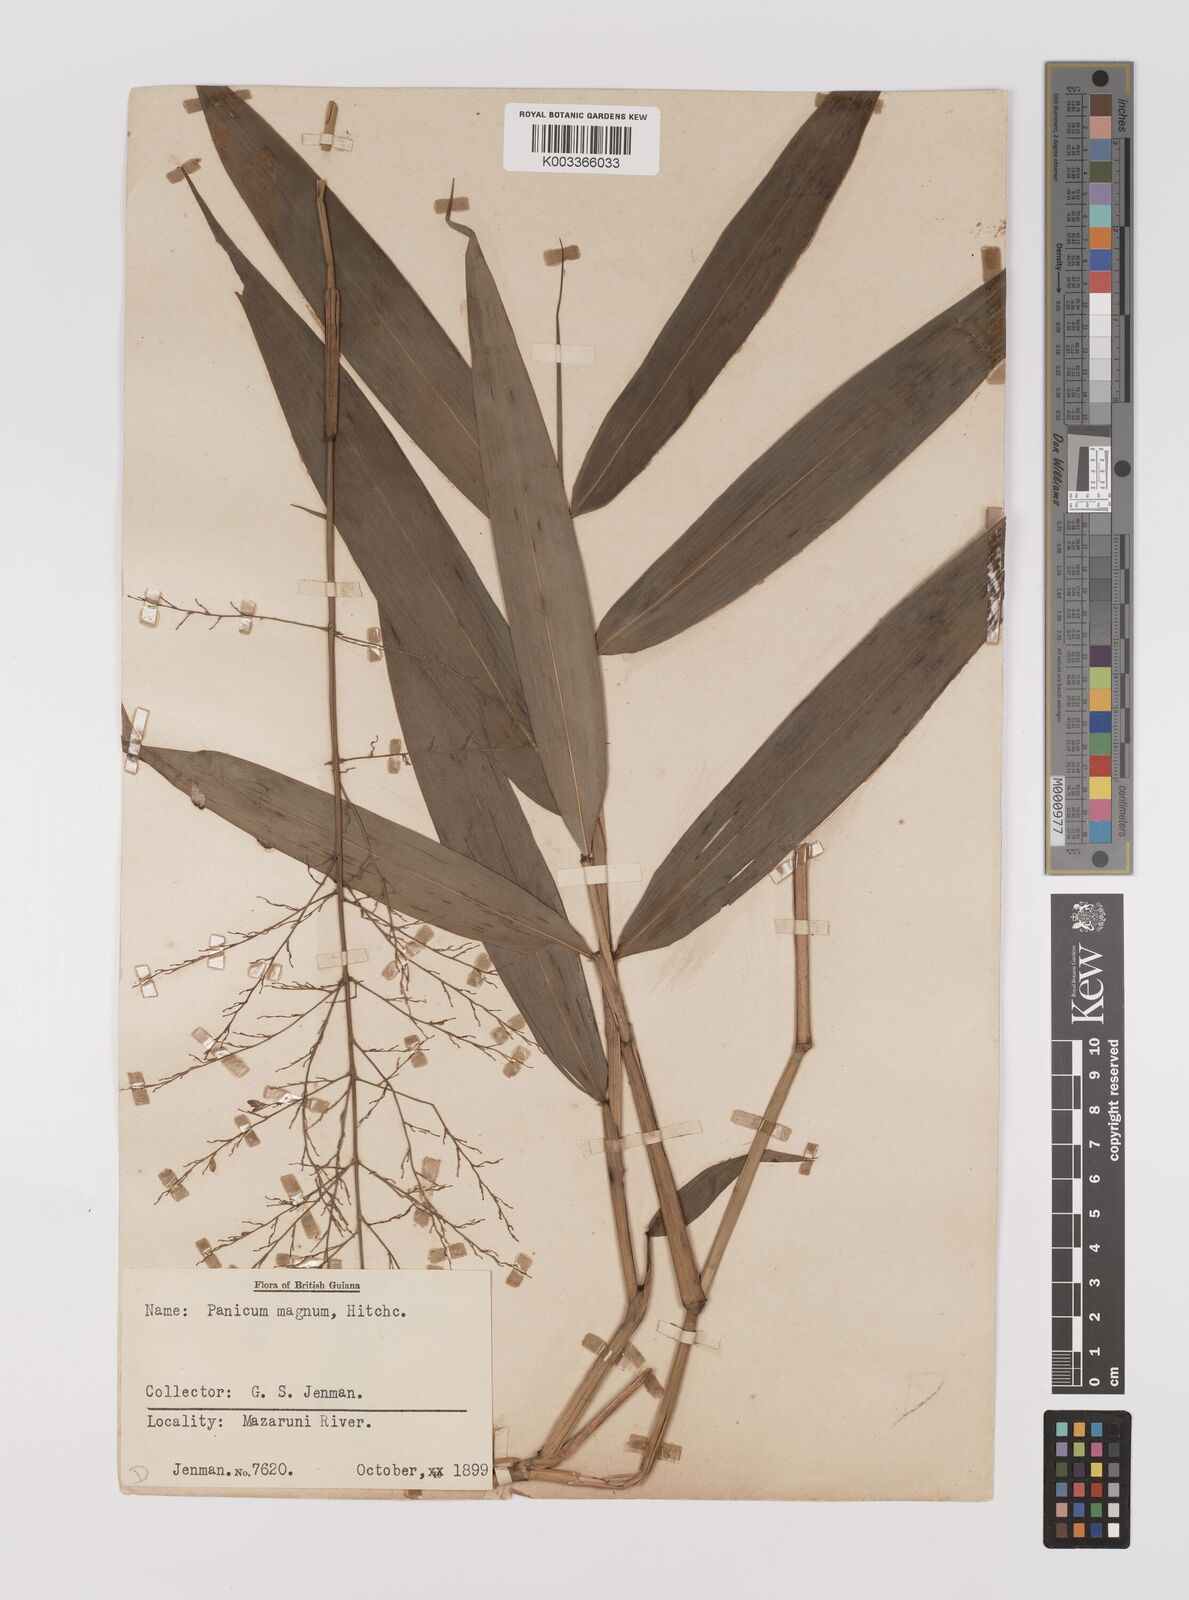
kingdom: Plantae
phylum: Tracheophyta
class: Liliopsida
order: Poales
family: Poaceae
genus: Ichnanthus
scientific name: Ichnanthus breviscrobs
